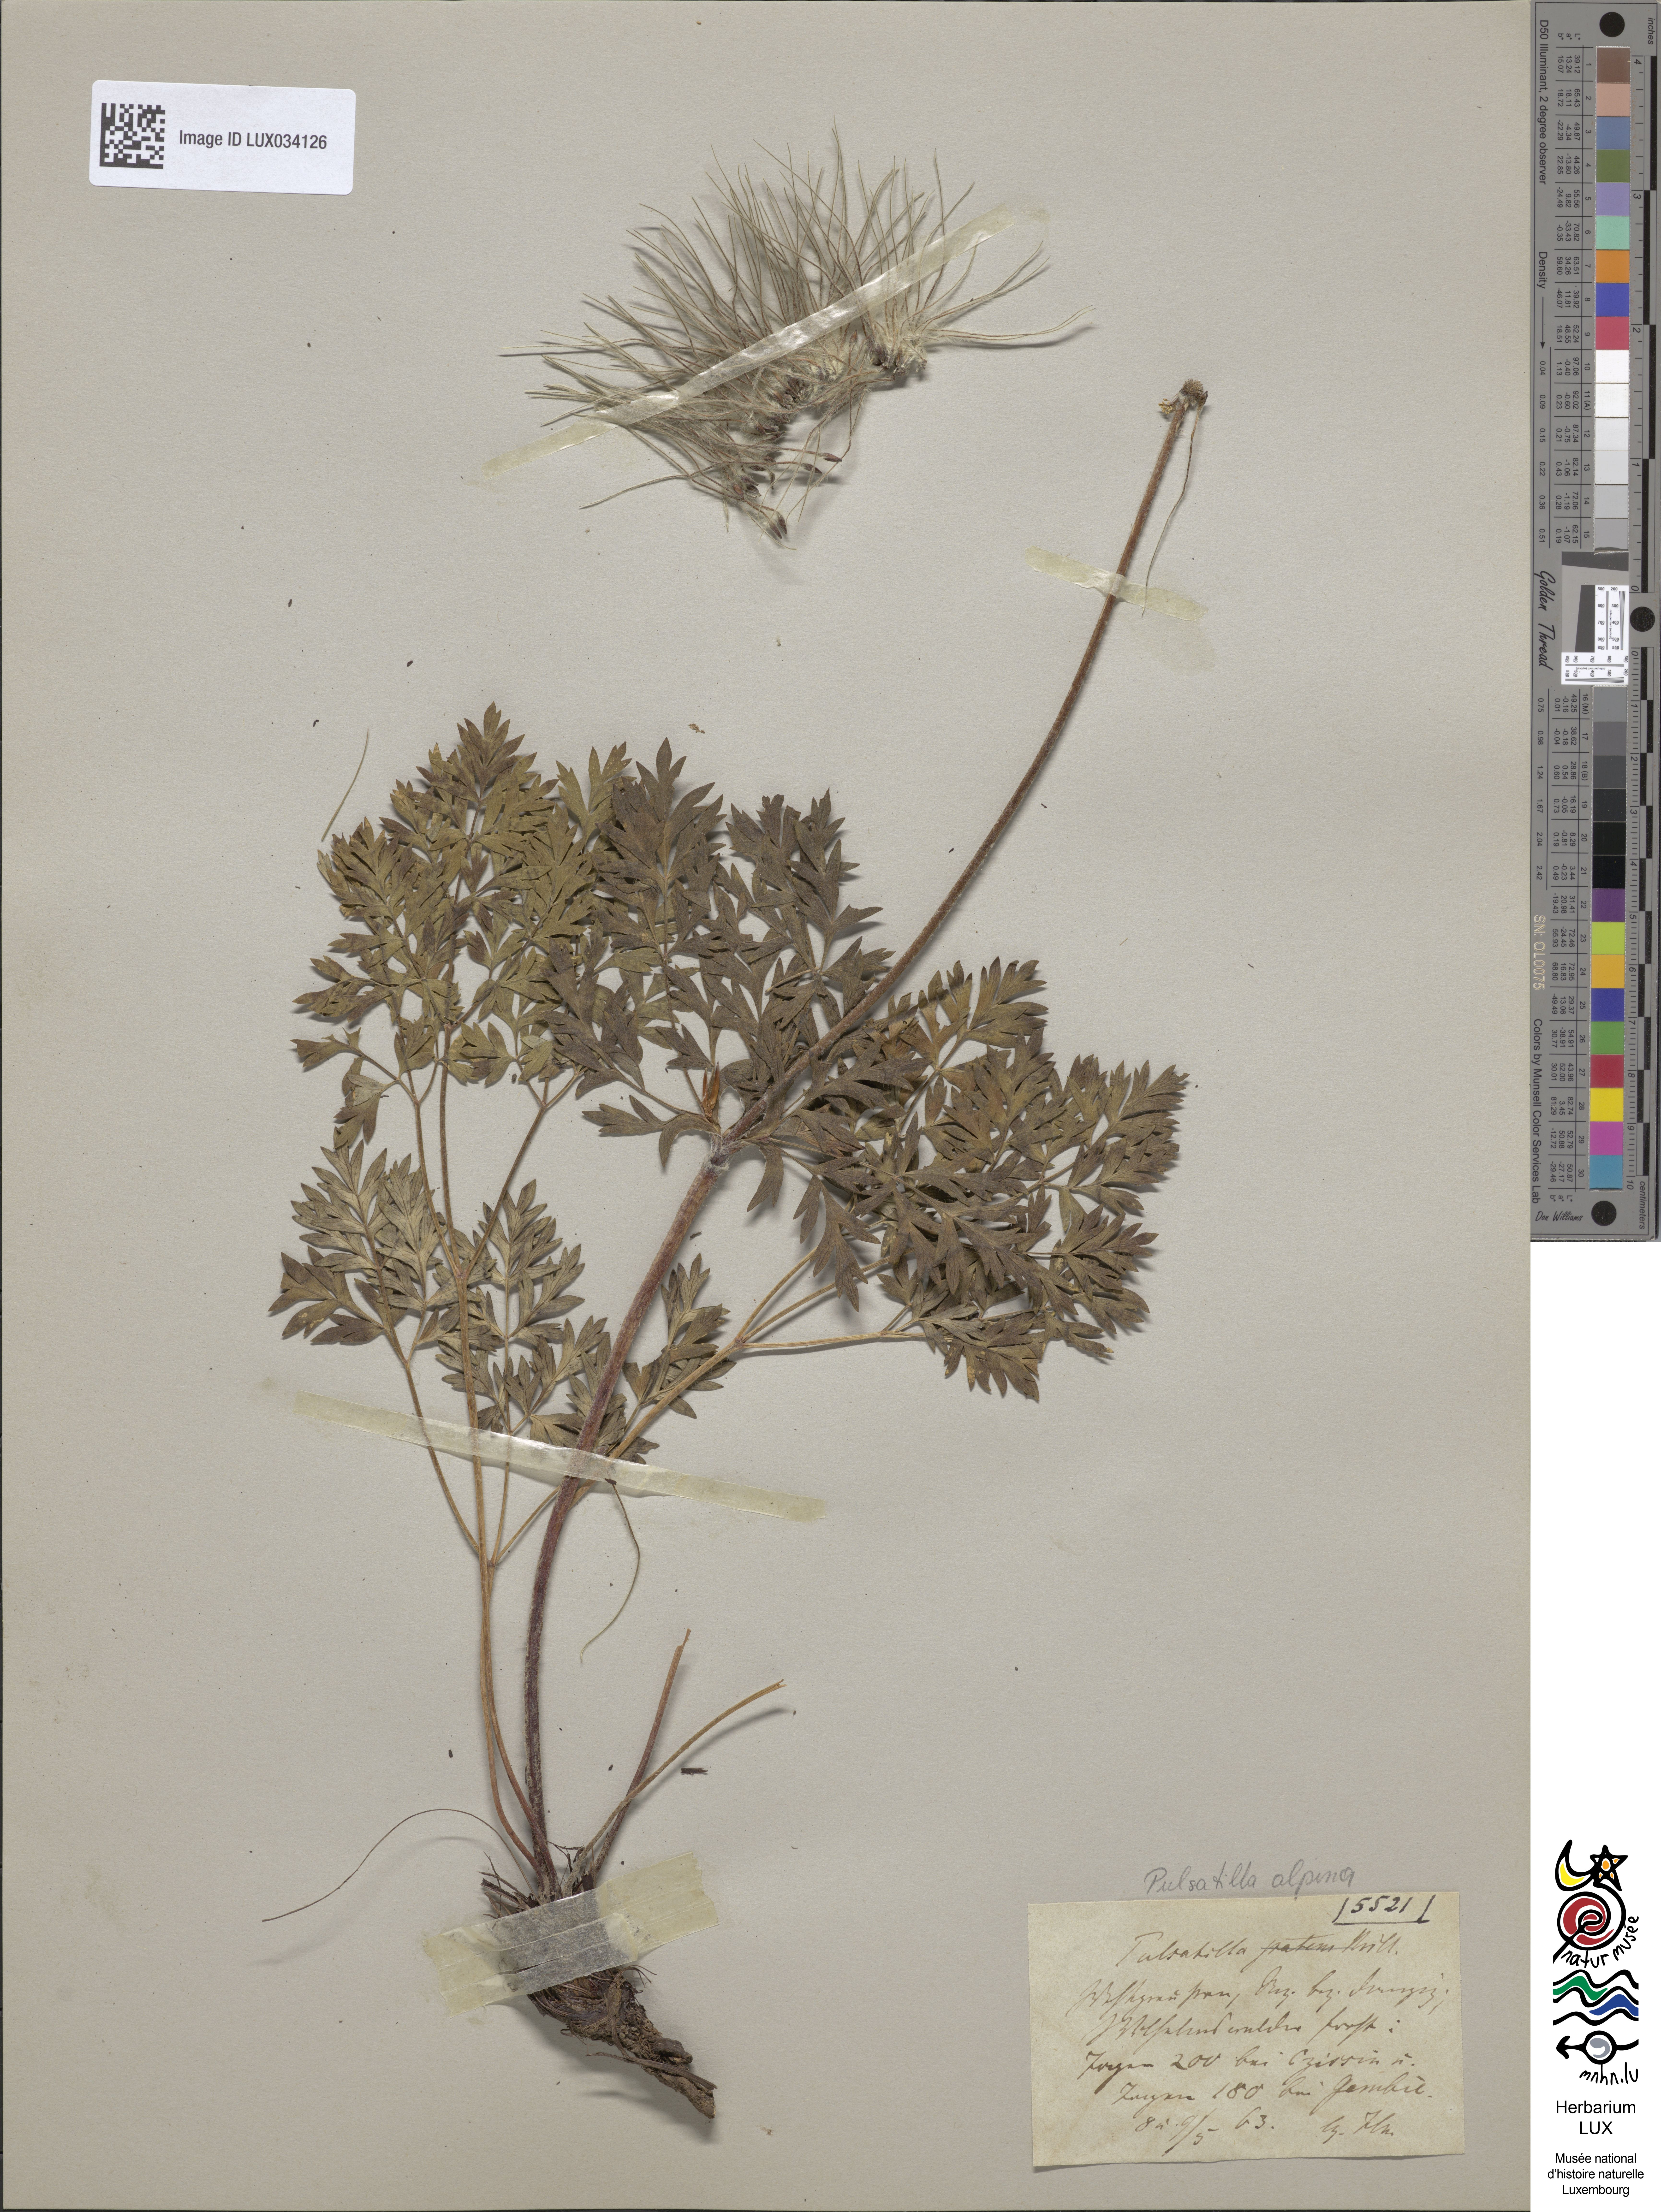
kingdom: Plantae
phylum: Tracheophyta
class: Magnoliopsida
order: Ranunculales
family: Ranunculaceae
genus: Pulsatilla
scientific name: Pulsatilla patens
